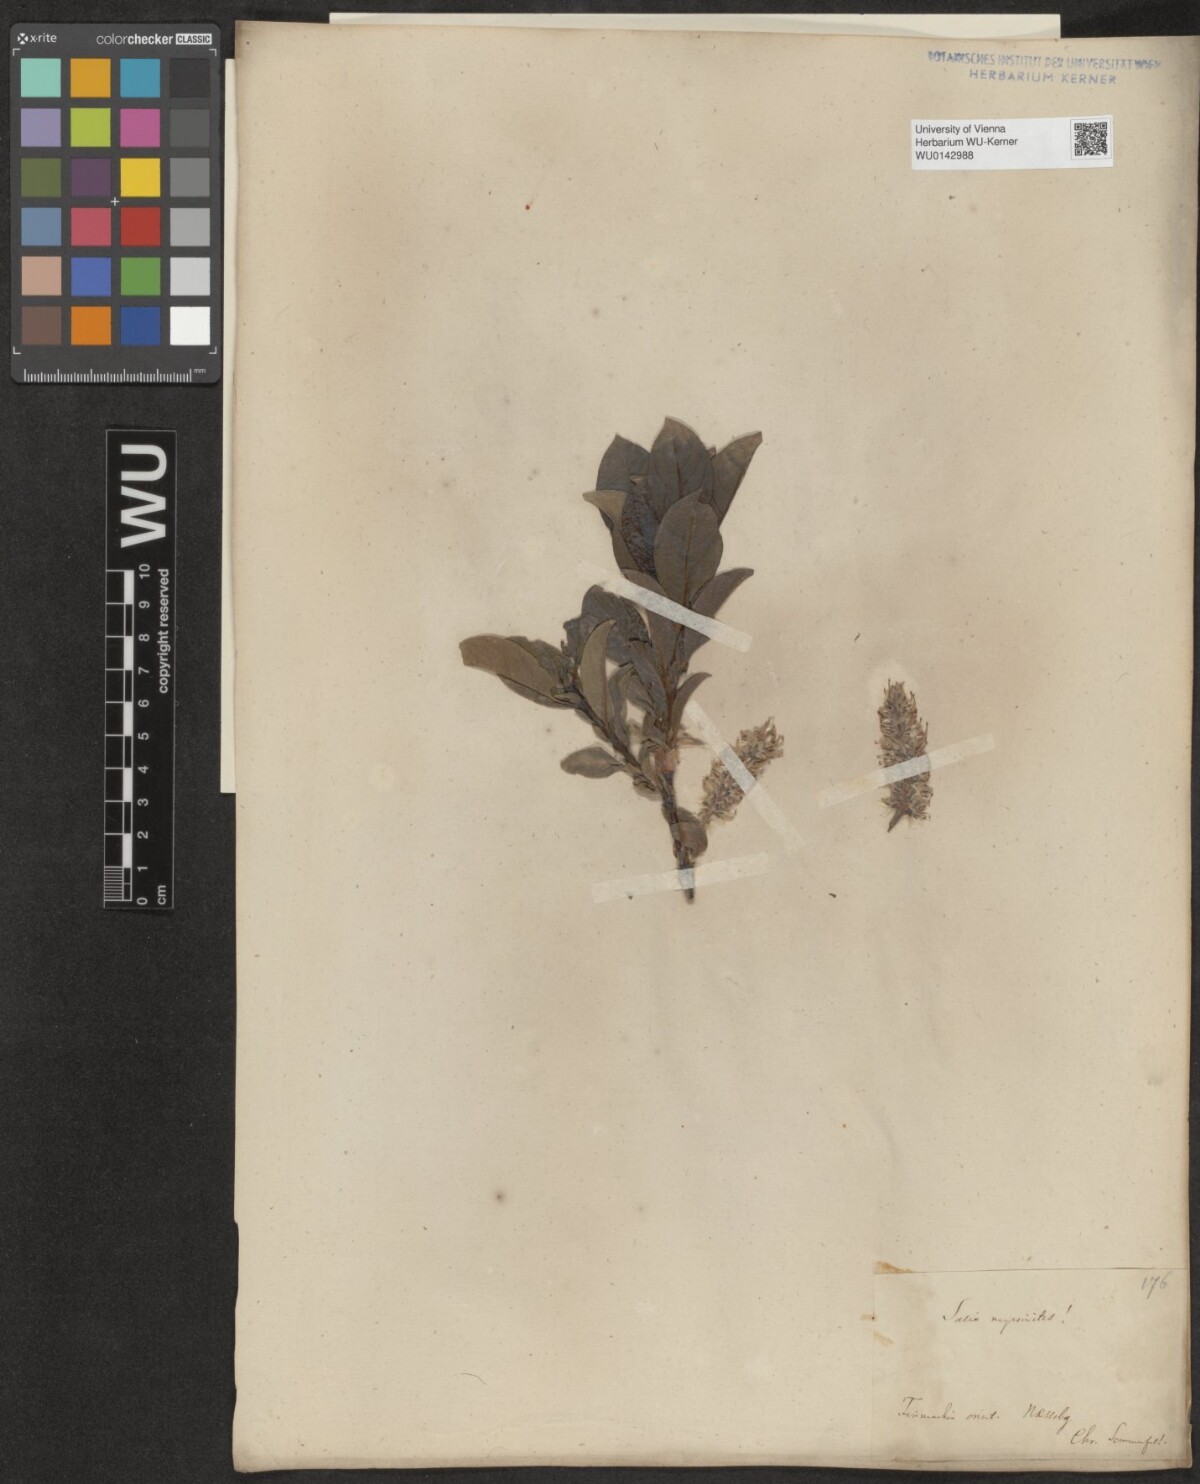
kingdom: Plantae
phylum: Tracheophyta
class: Magnoliopsida
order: Malpighiales
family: Salicaceae
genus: Salix
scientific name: Salix myrsinites
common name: Myrtle willow
